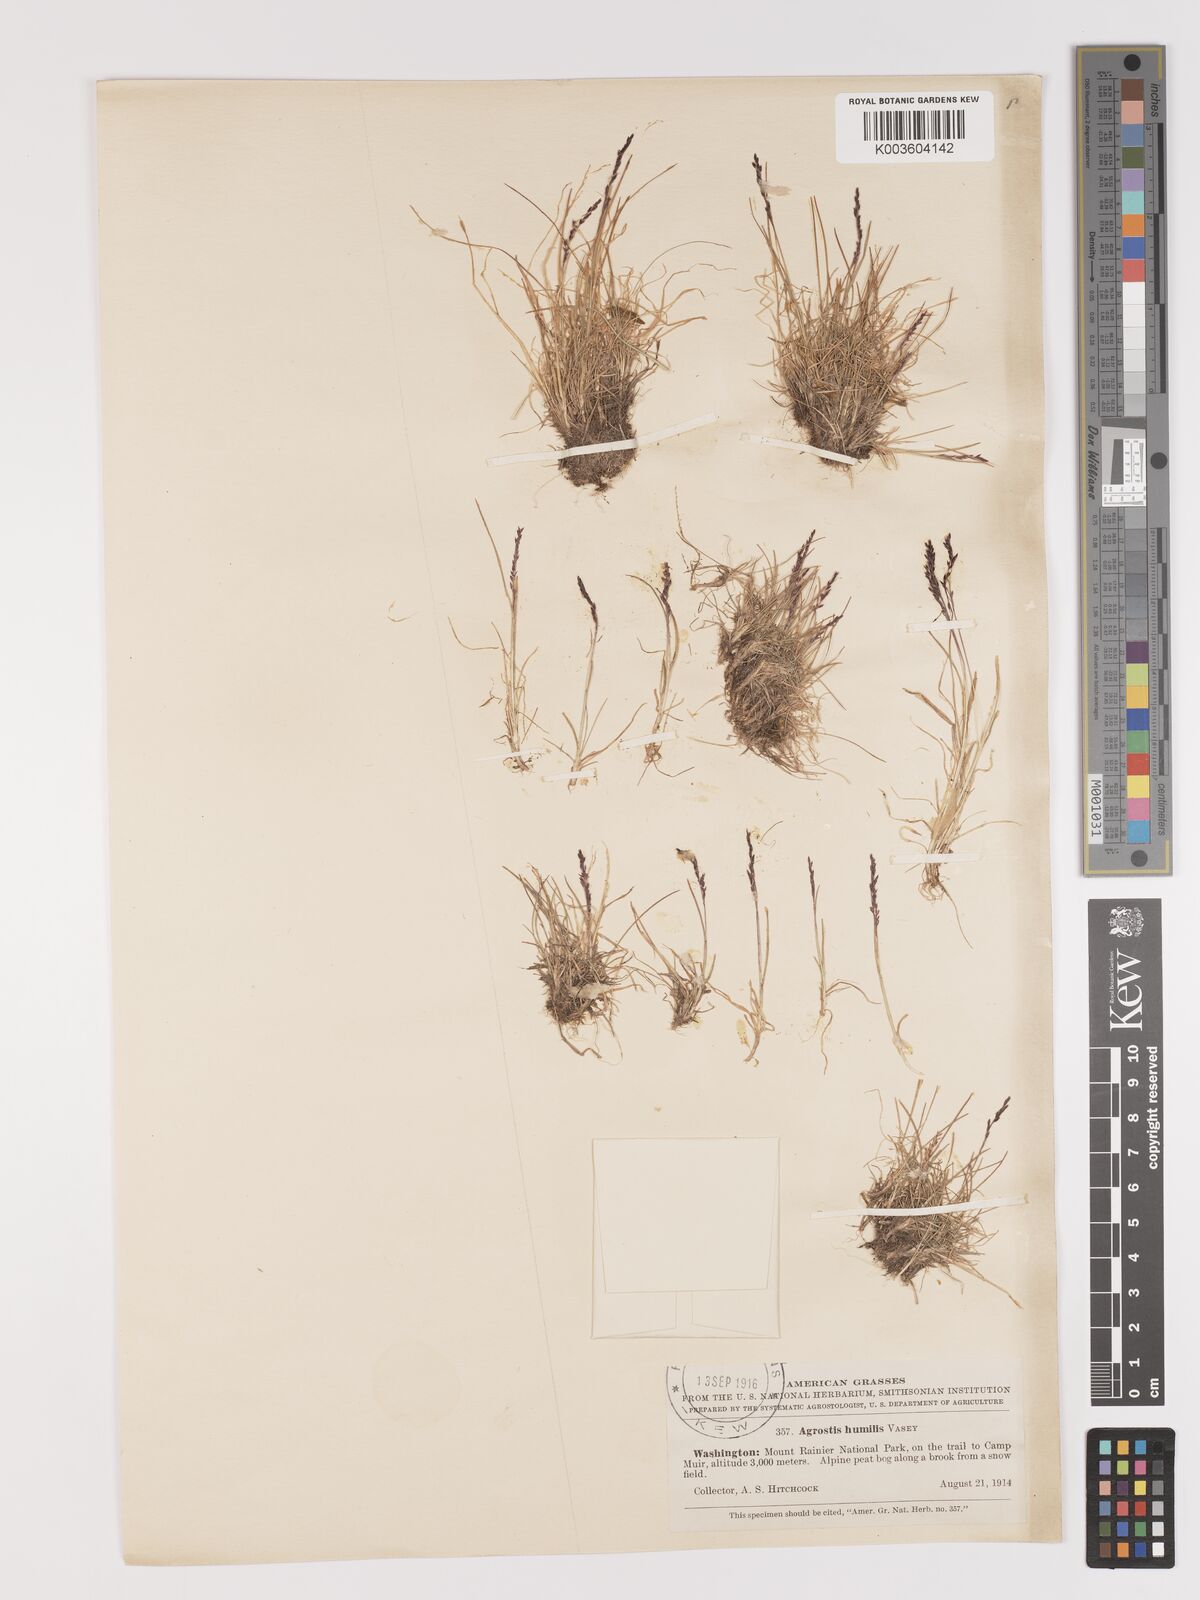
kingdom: Plantae
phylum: Tracheophyta
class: Liliopsida
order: Poales
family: Poaceae
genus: Podagrostis
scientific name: Podagrostis humilis
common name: Thurber's bentgrass
